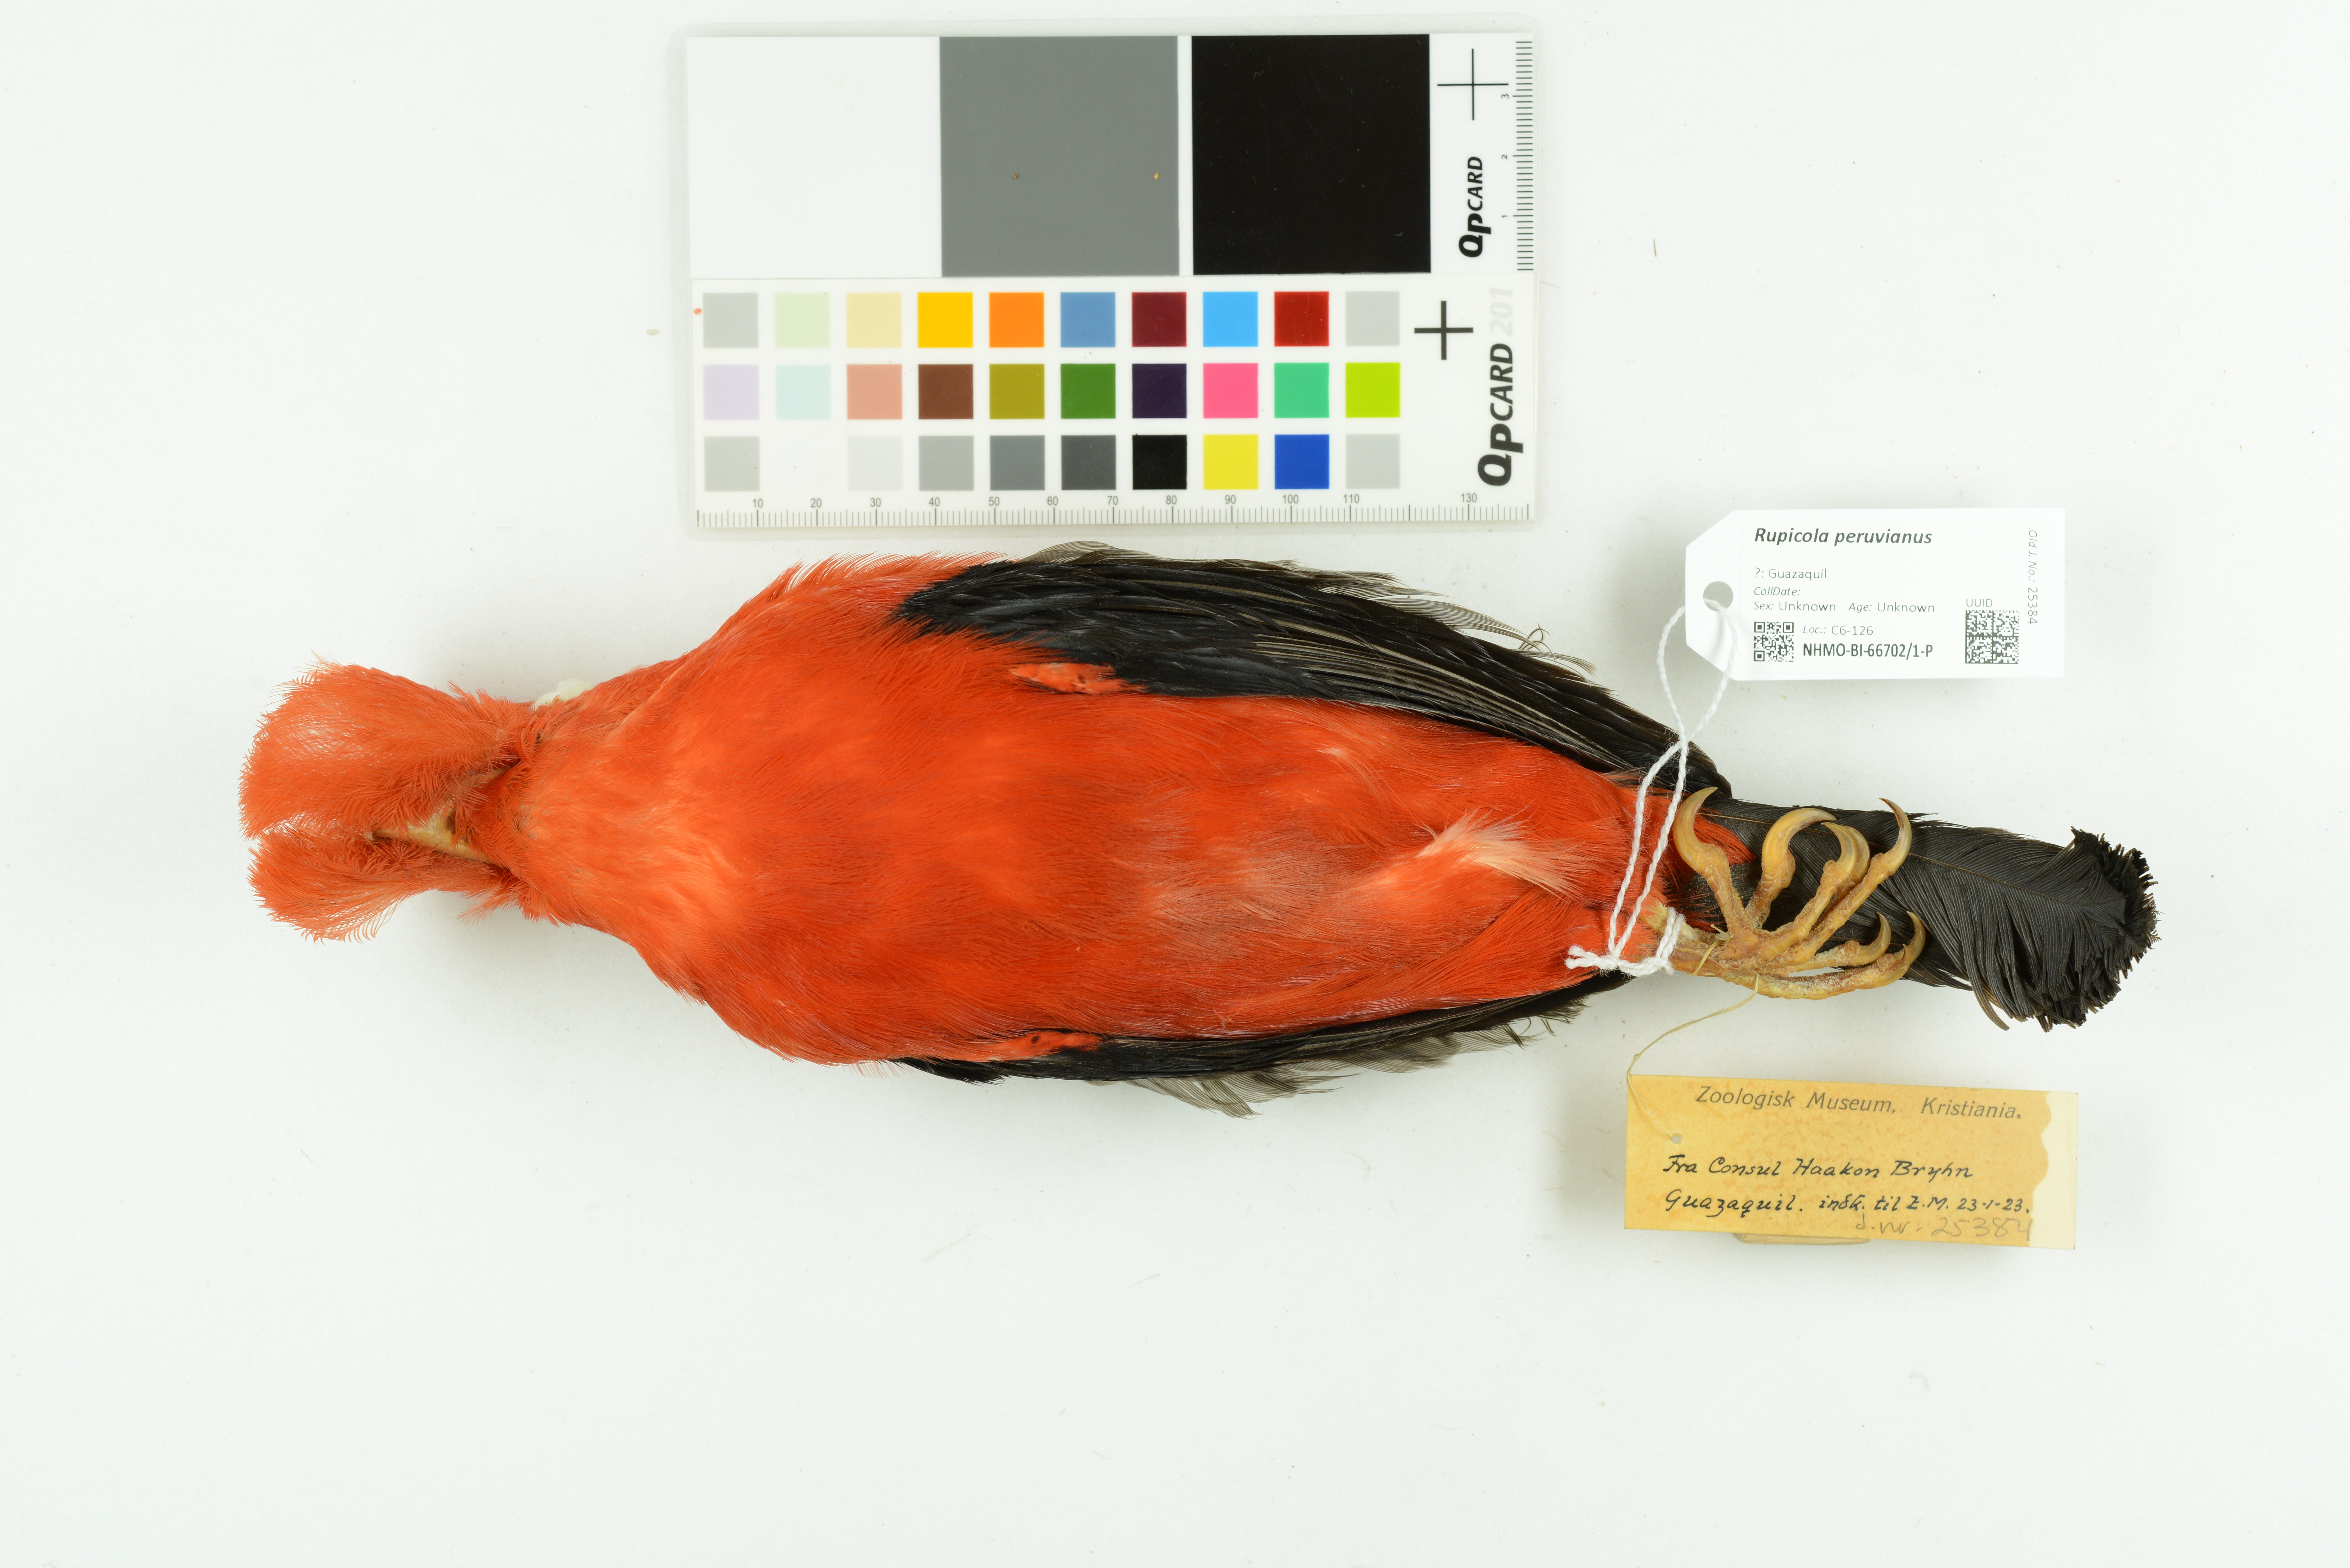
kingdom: Animalia
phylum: Chordata
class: Aves
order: Passeriformes
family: Cotingidae
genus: Rupicola
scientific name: Rupicola peruvianus
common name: Andean cock-of-the-rock
